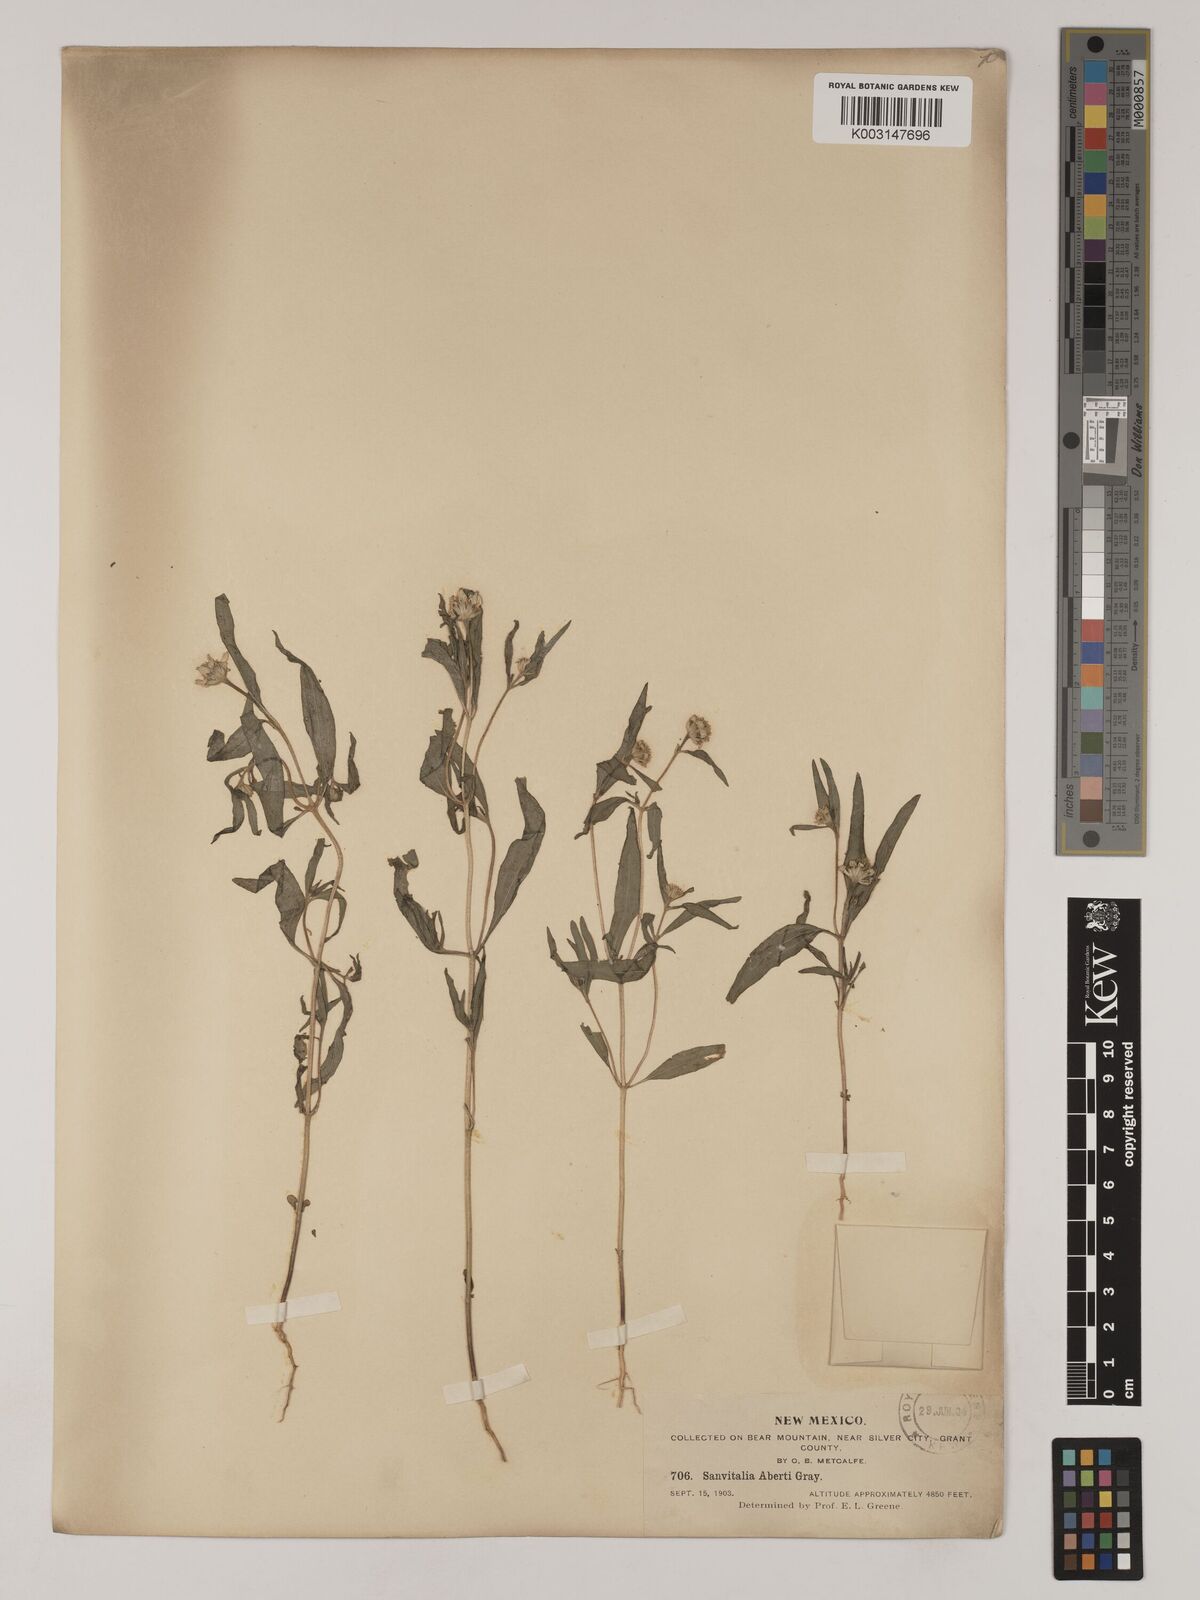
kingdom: Plantae
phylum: Tracheophyta
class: Magnoliopsida
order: Asterales
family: Asteraceae
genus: Sanvitalia
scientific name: Sanvitalia abertii
